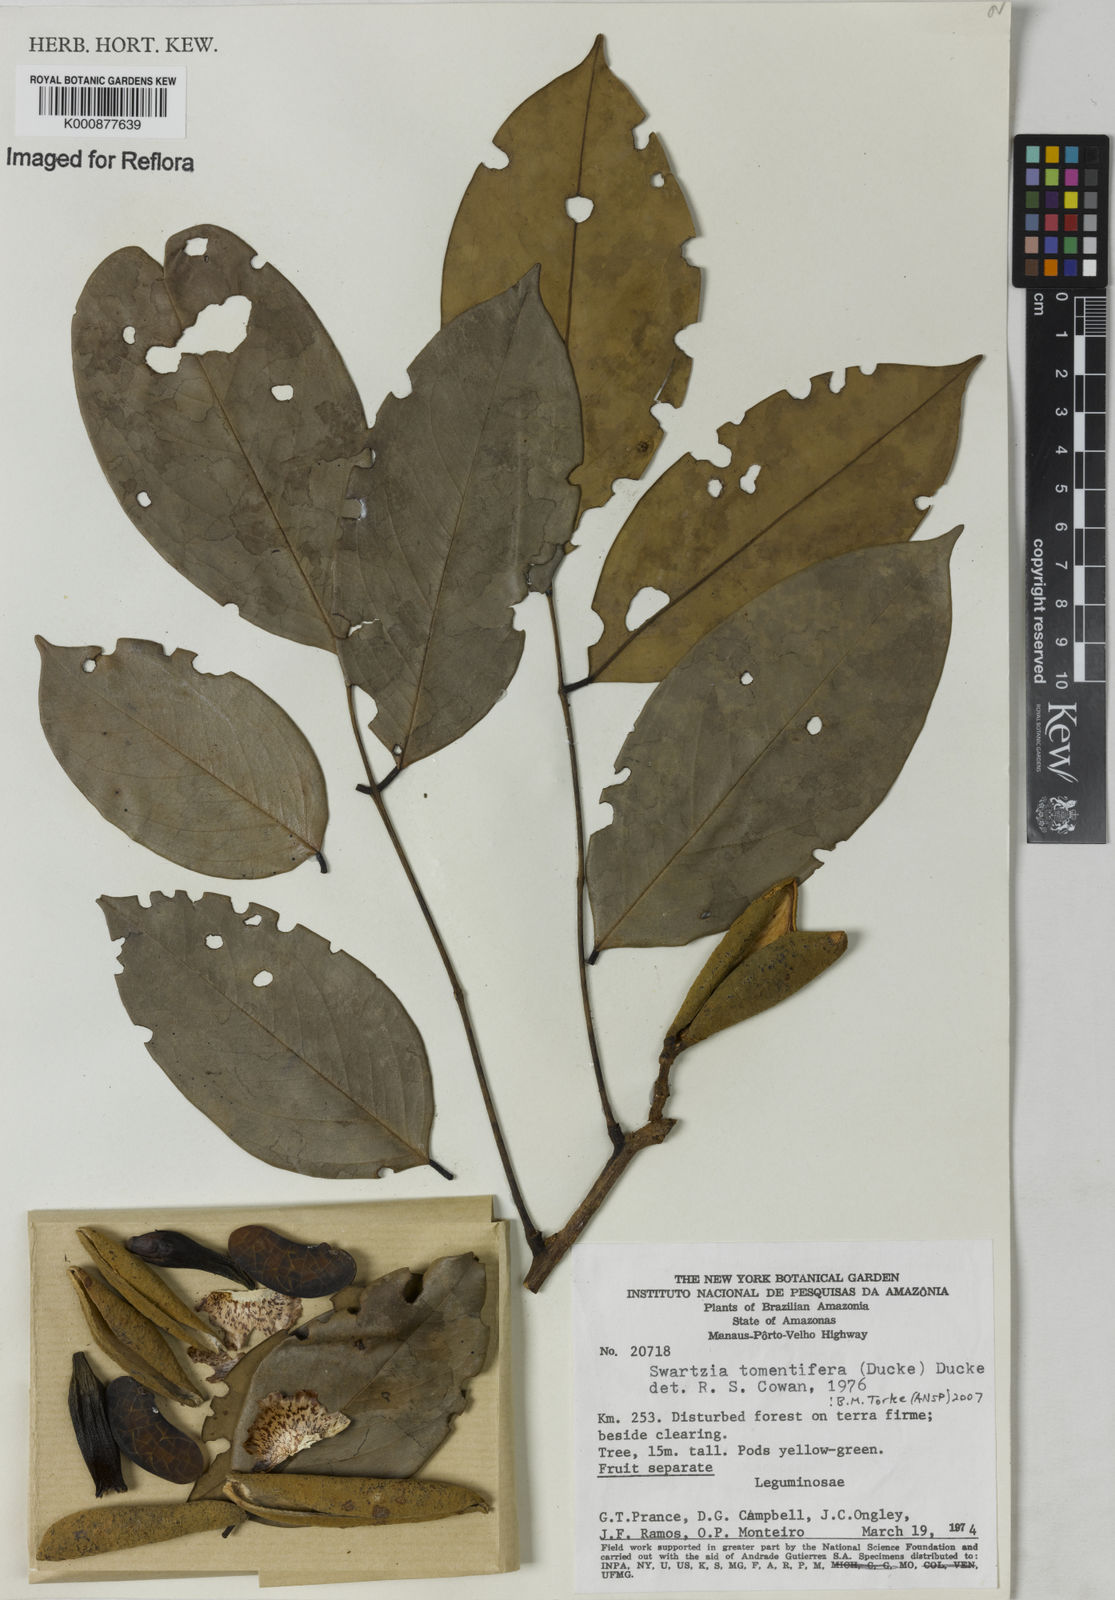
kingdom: Plantae
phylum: Tracheophyta
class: Magnoliopsida
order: Fabales
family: Fabaceae
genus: Swartzia
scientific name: Swartzia tomentifera
